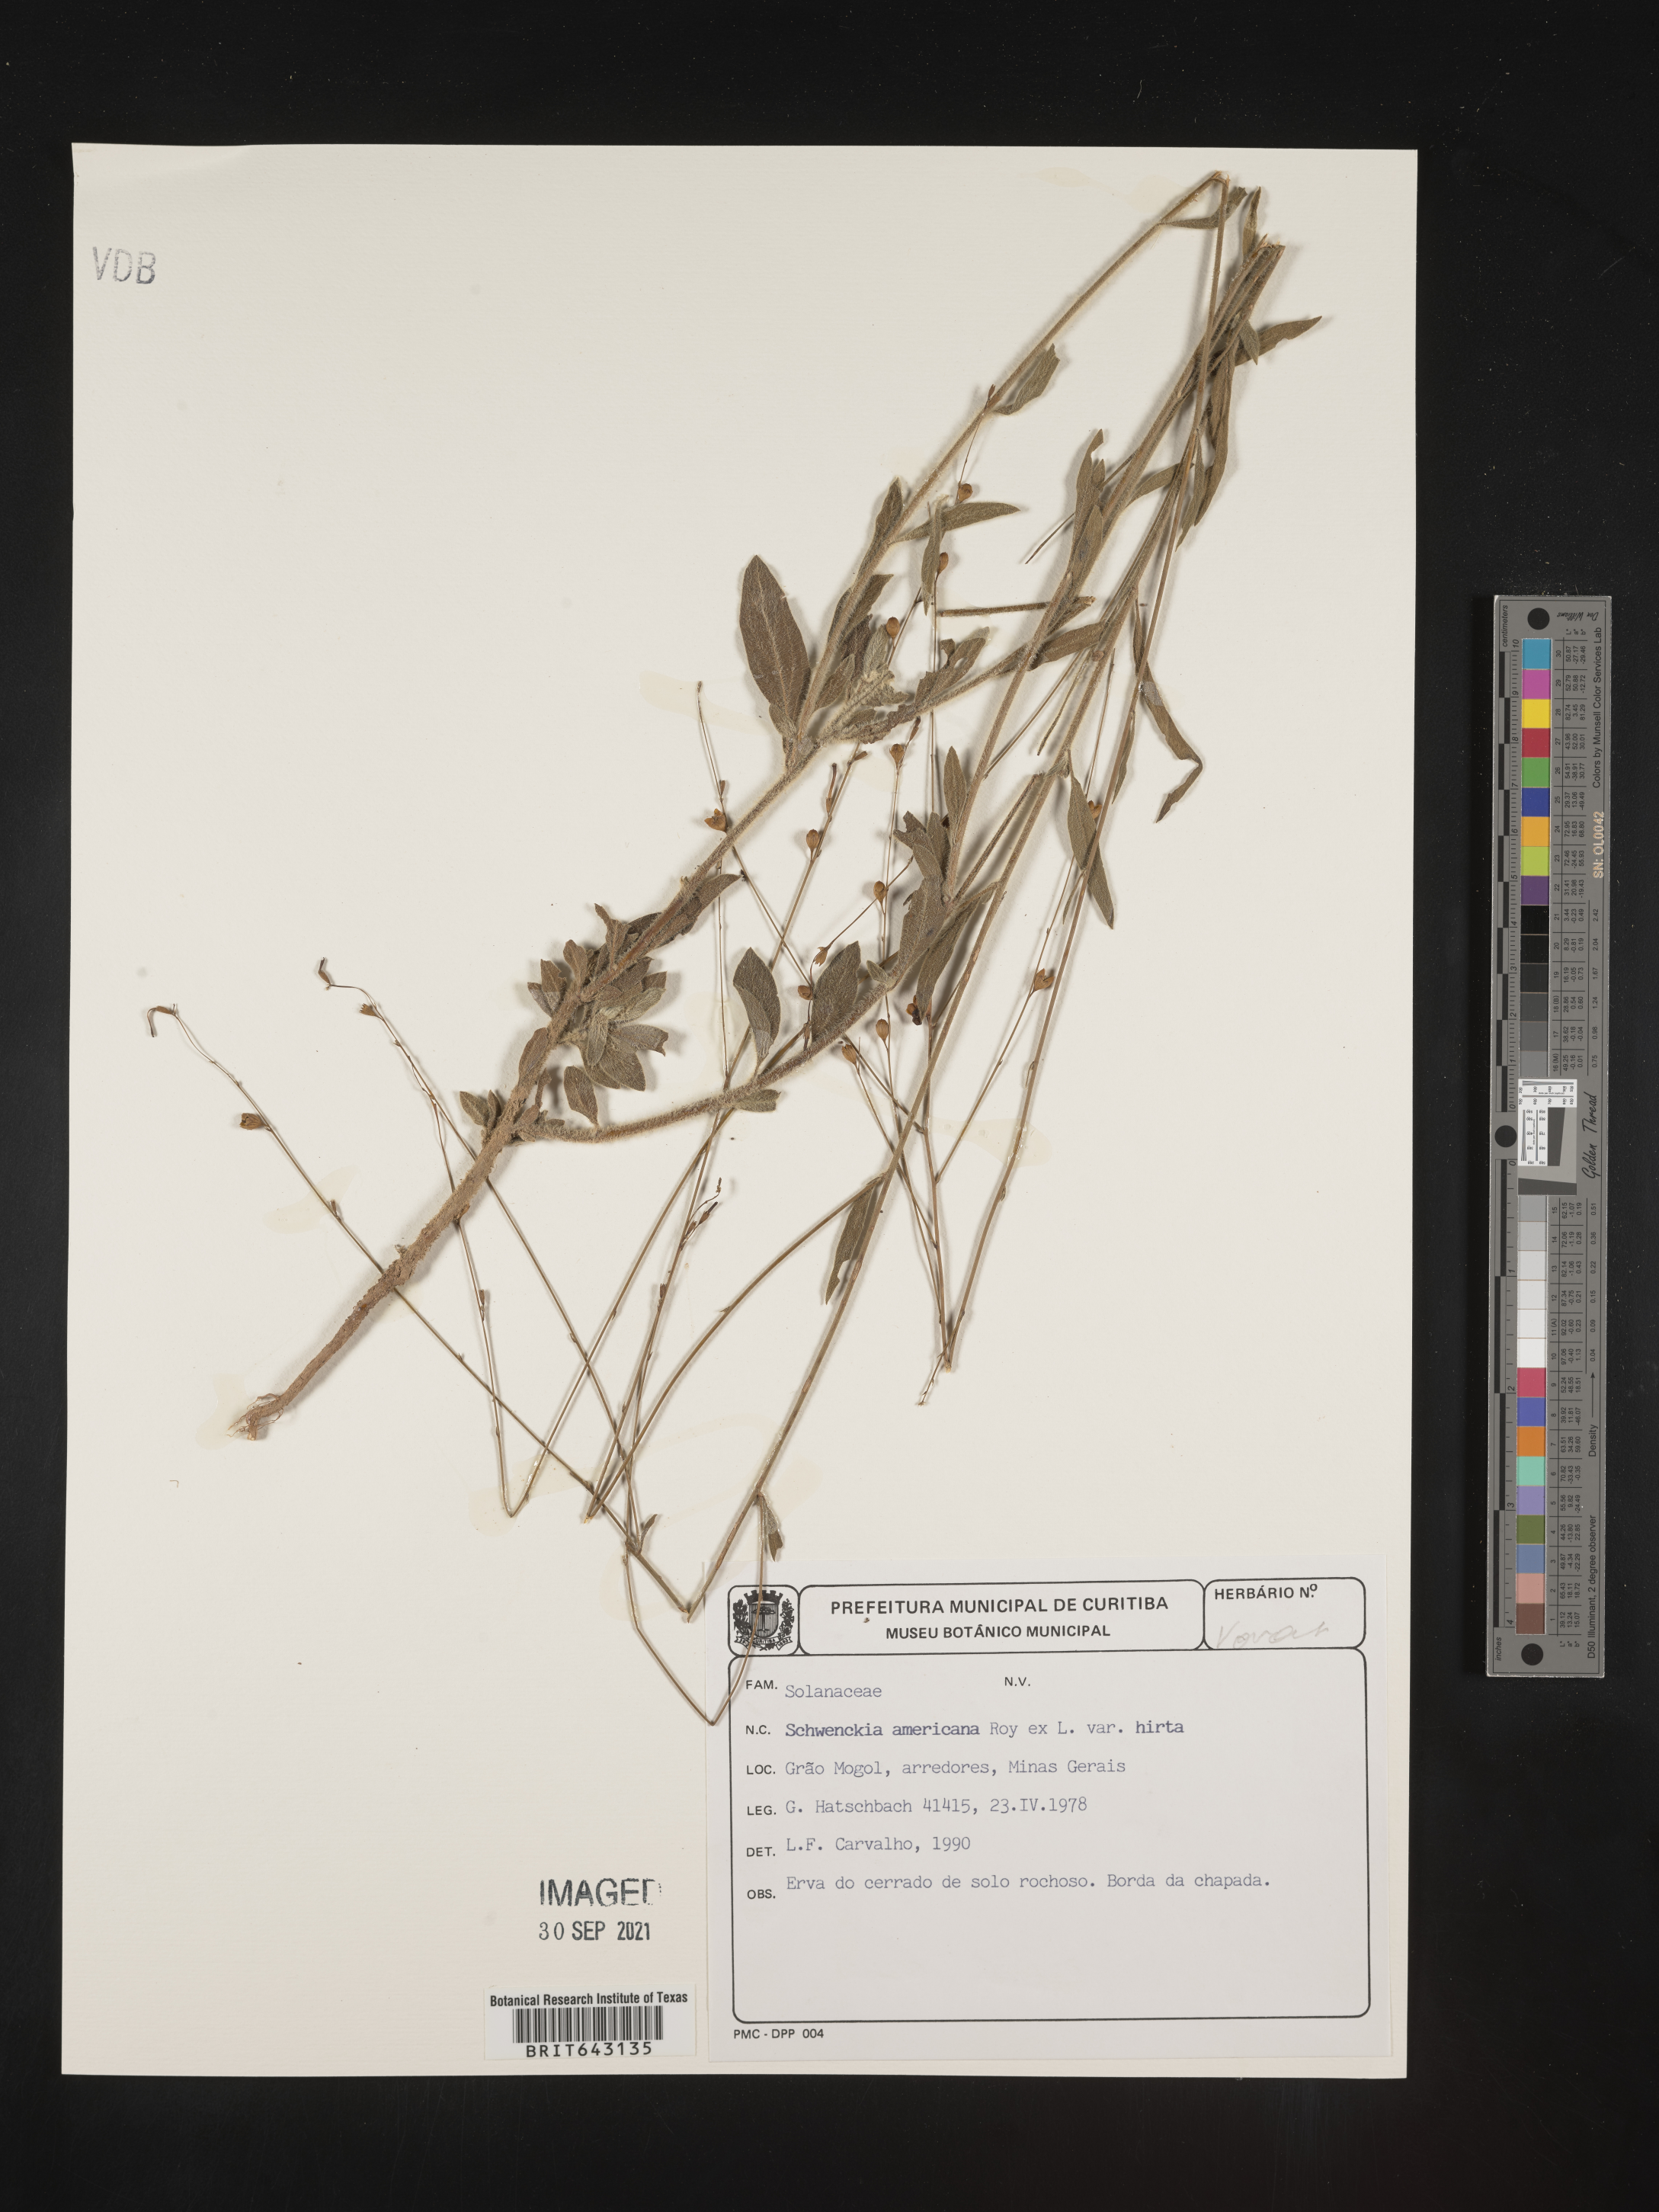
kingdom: Plantae
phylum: Tracheophyta
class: Magnoliopsida
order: Solanales
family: Solanaceae
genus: Schwenckia
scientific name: Schwenckia
